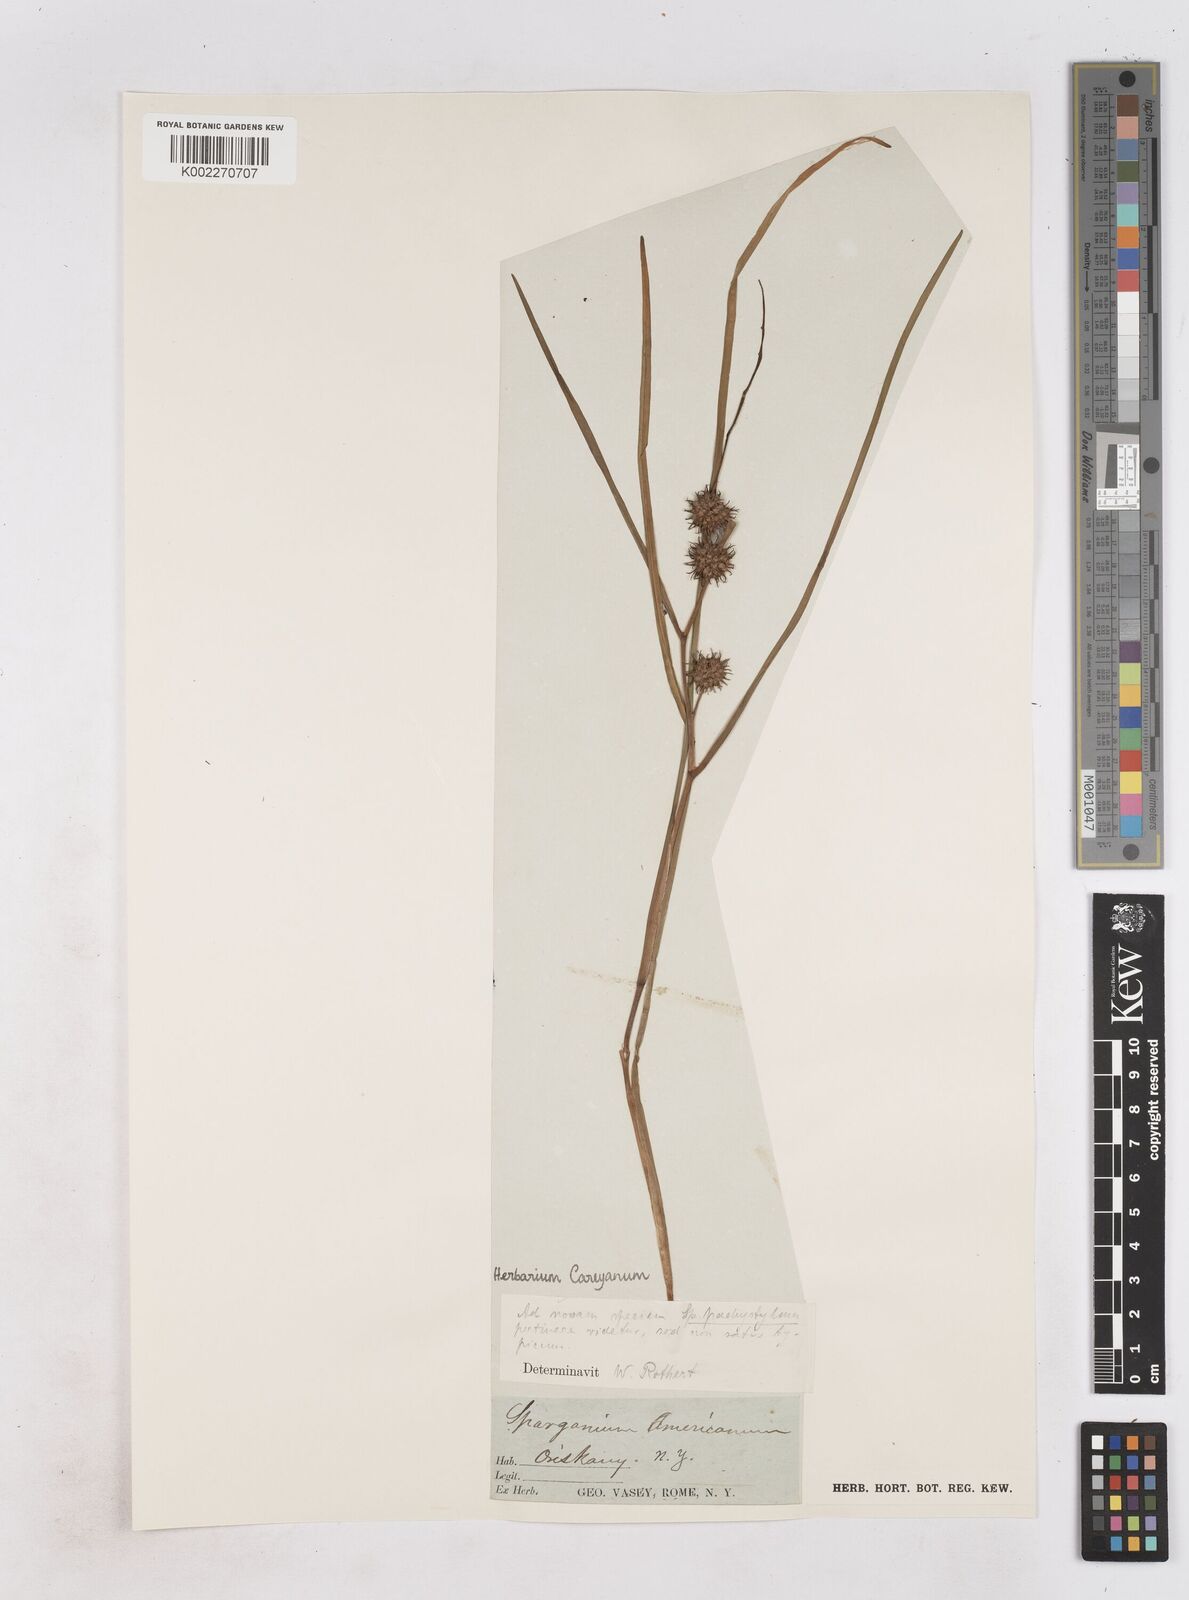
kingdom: Plantae
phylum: Tracheophyta
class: Liliopsida
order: Poales
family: Typhaceae
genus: Sparganium
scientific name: Sparganium
